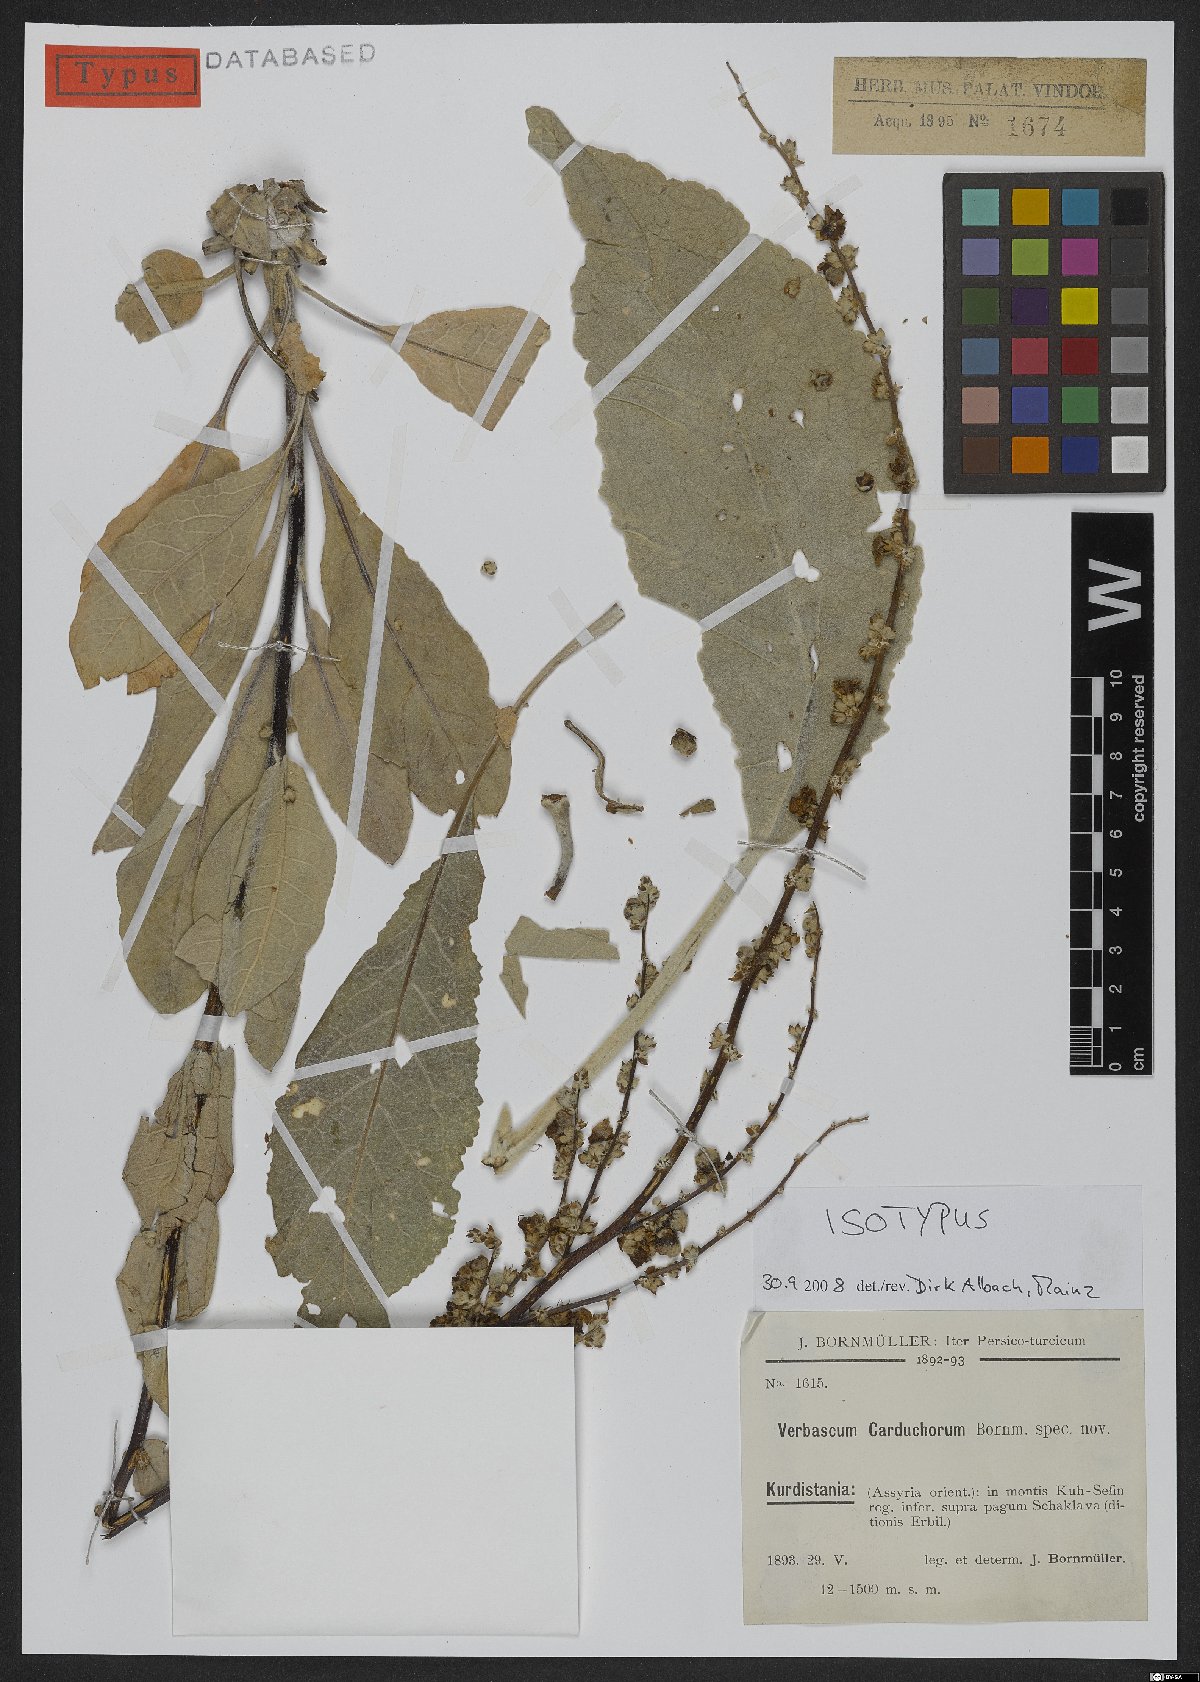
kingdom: Plantae
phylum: Tracheophyta
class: Magnoliopsida
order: Lamiales
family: Scrophulariaceae
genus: Verbascum
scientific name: Verbascum carduchorum
